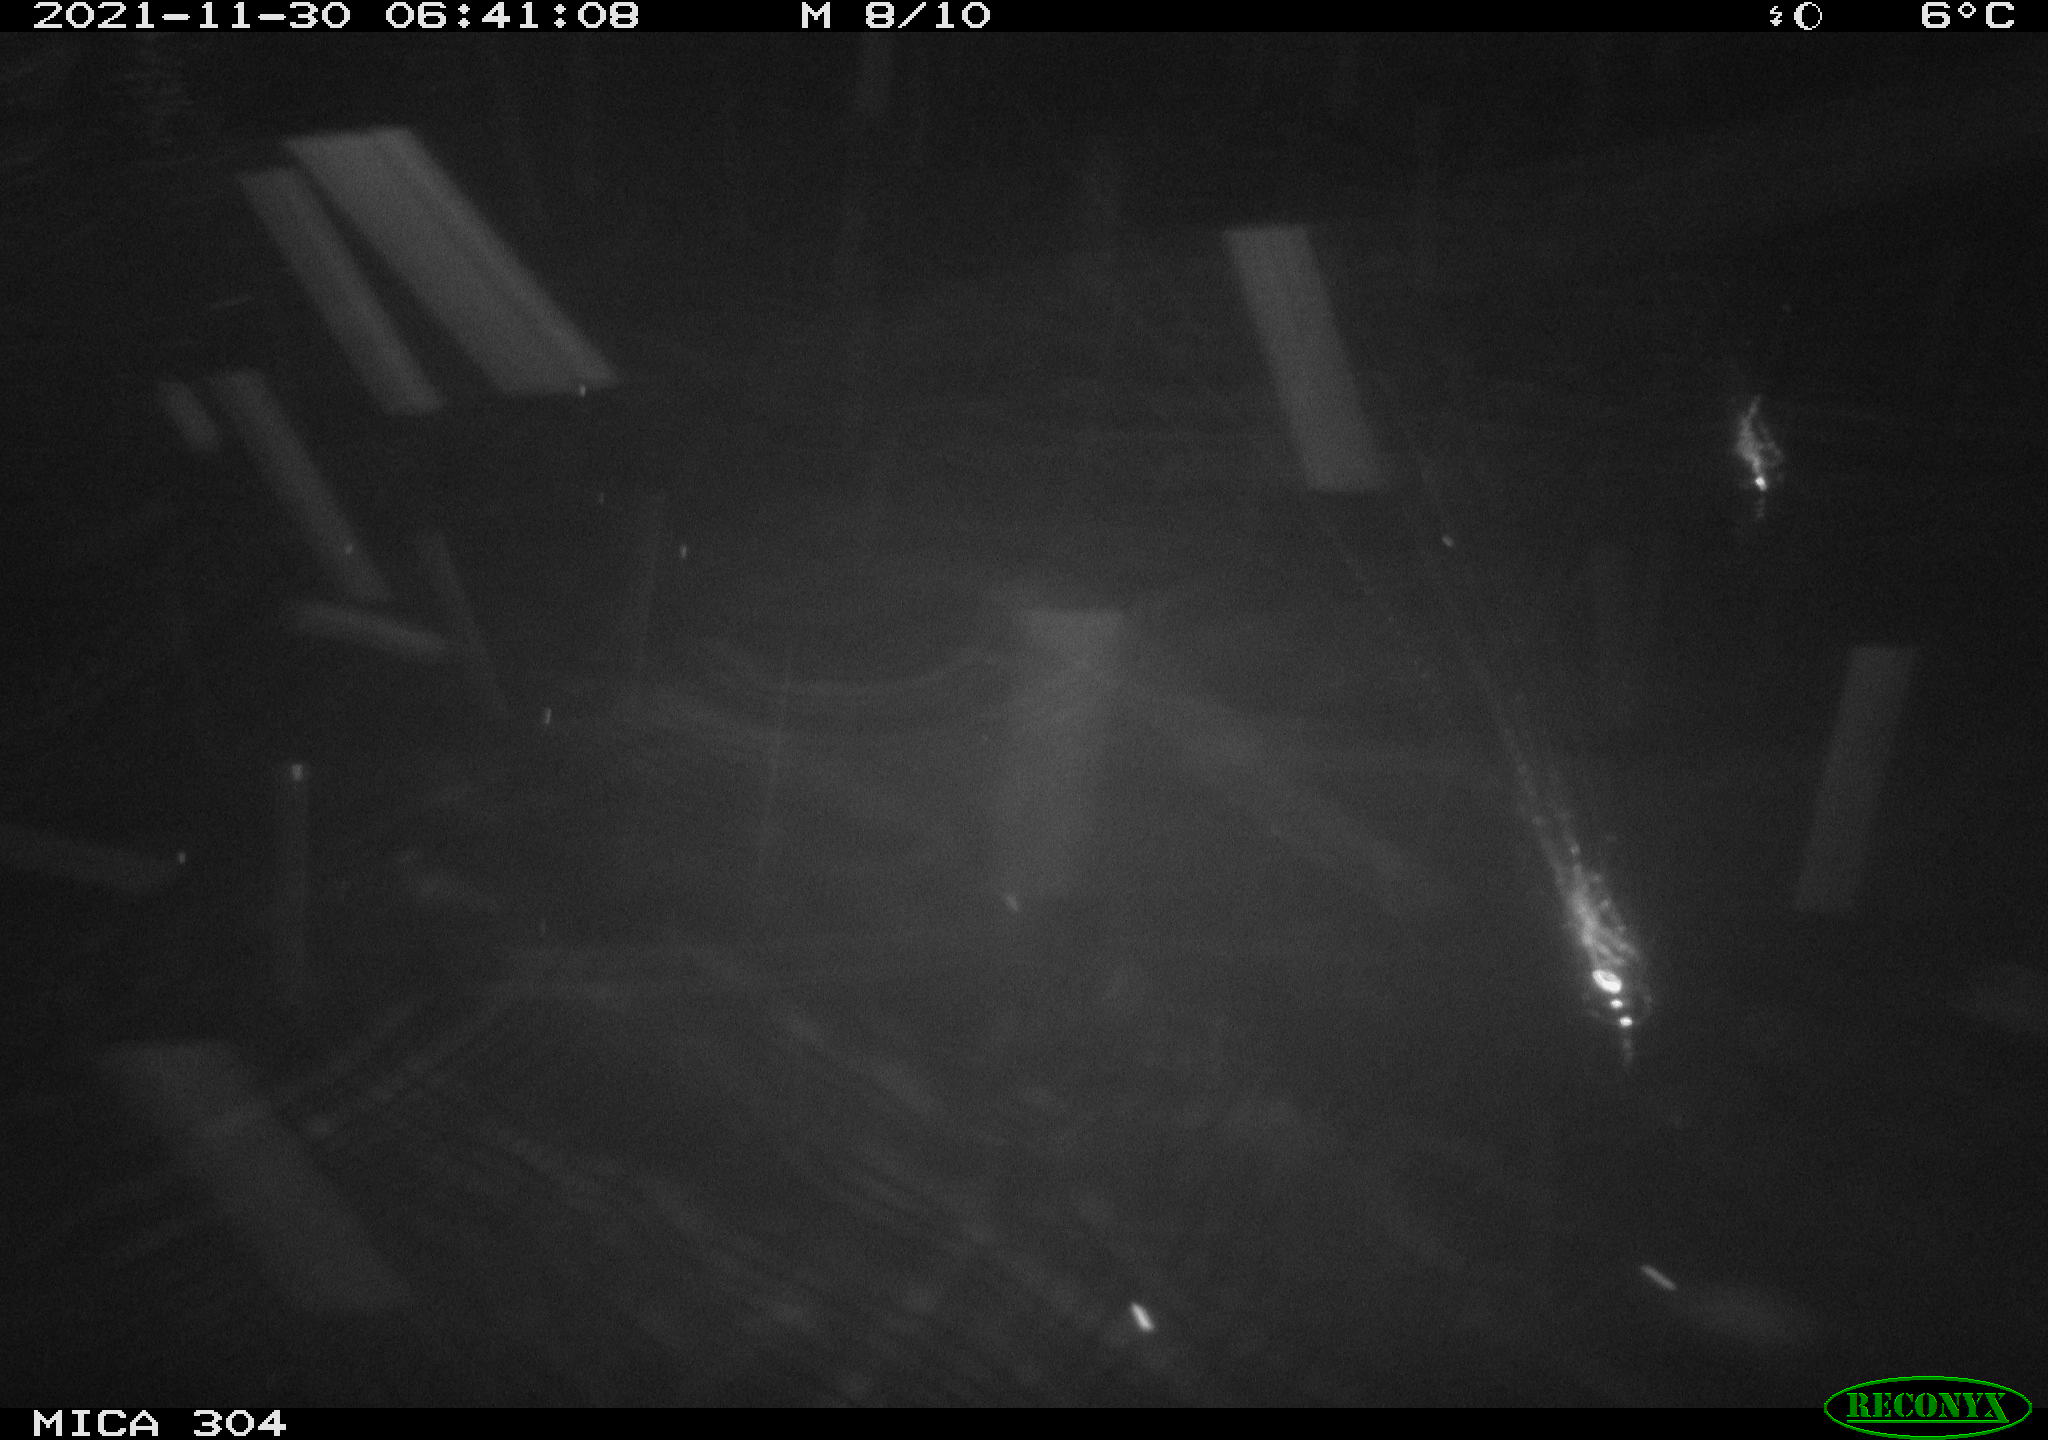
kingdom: Animalia
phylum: Chordata
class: Mammalia
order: Rodentia
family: Muridae
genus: Rattus
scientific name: Rattus norvegicus
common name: Brown rat
